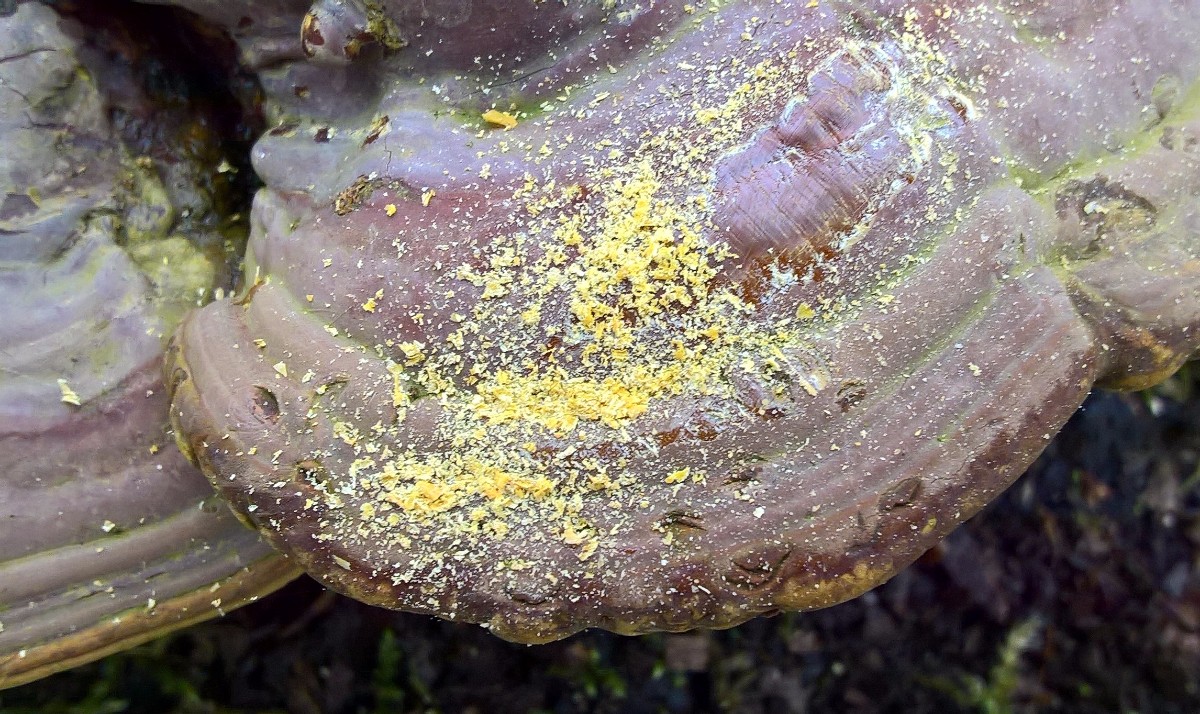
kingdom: Fungi
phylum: Basidiomycota
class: Agaricomycetes
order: Polyporales
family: Polyporaceae
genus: Ganoderma
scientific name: Ganoderma pfeifferi
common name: kobberrød lakporesvamp
